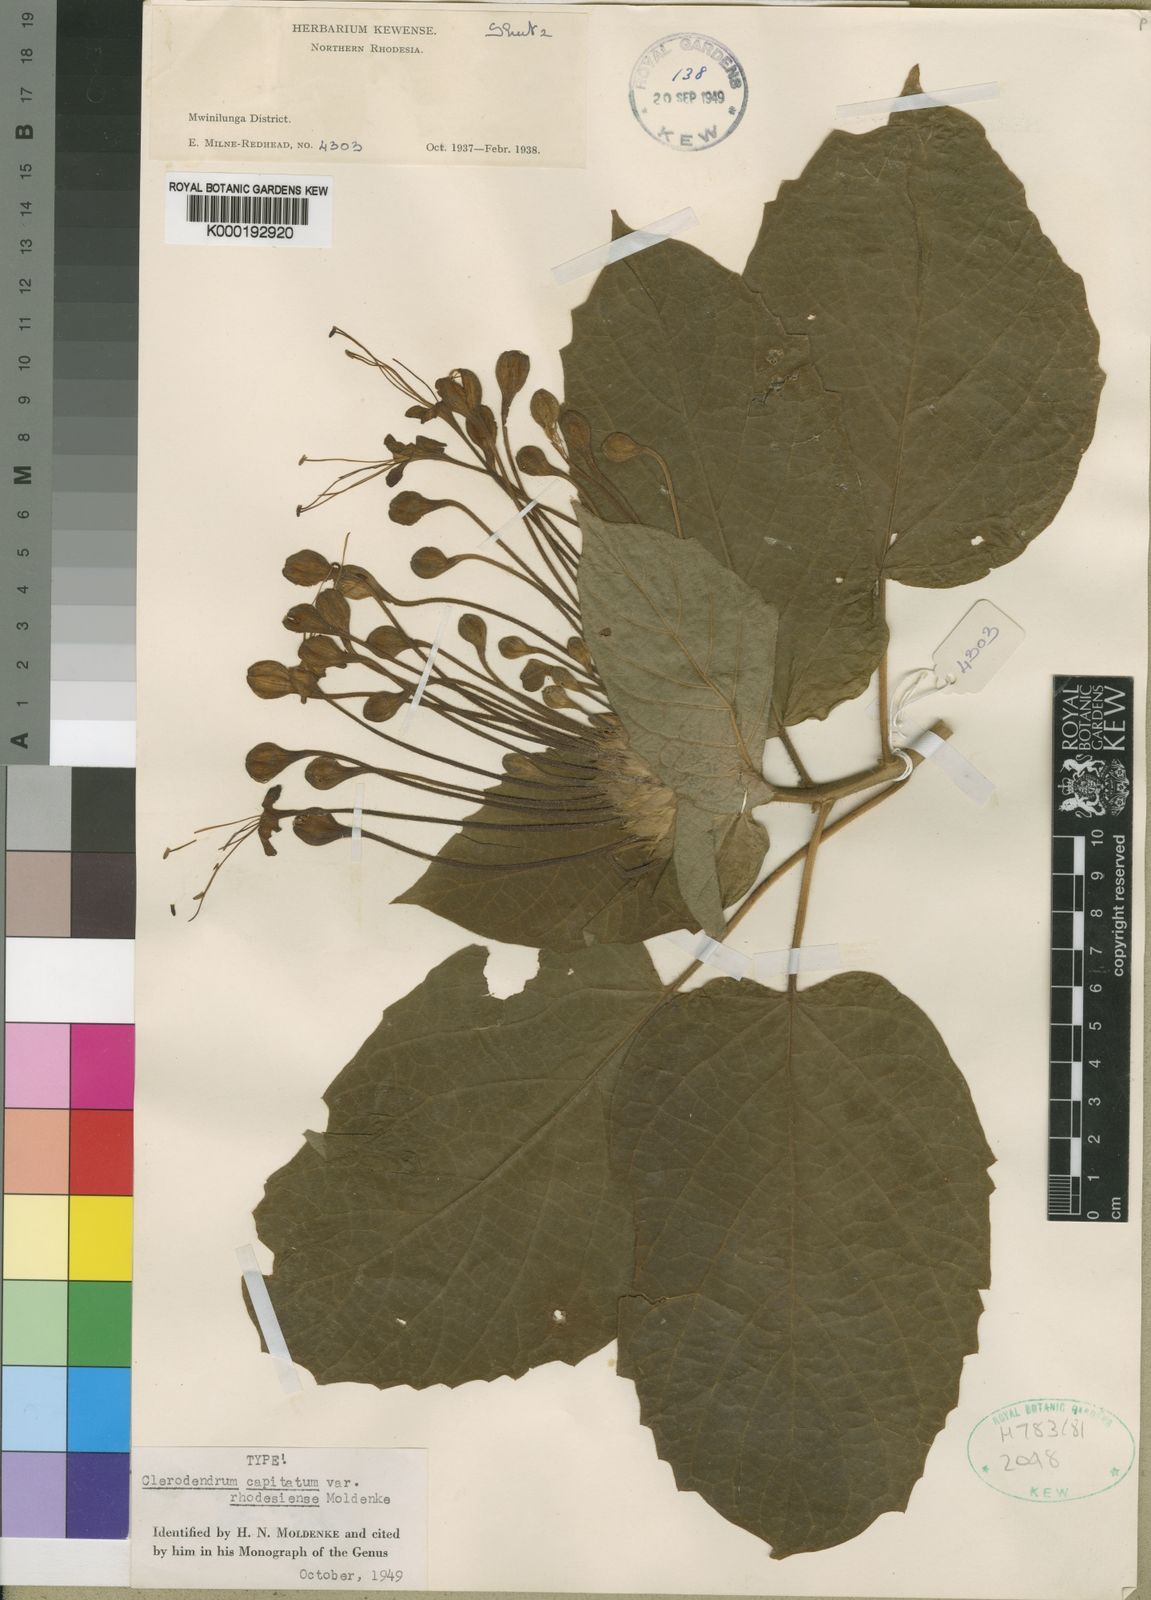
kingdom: Plantae
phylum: Tracheophyta
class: Magnoliopsida
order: Lamiales
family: Lamiaceae
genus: Clerodendrum
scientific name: Clerodendrum
